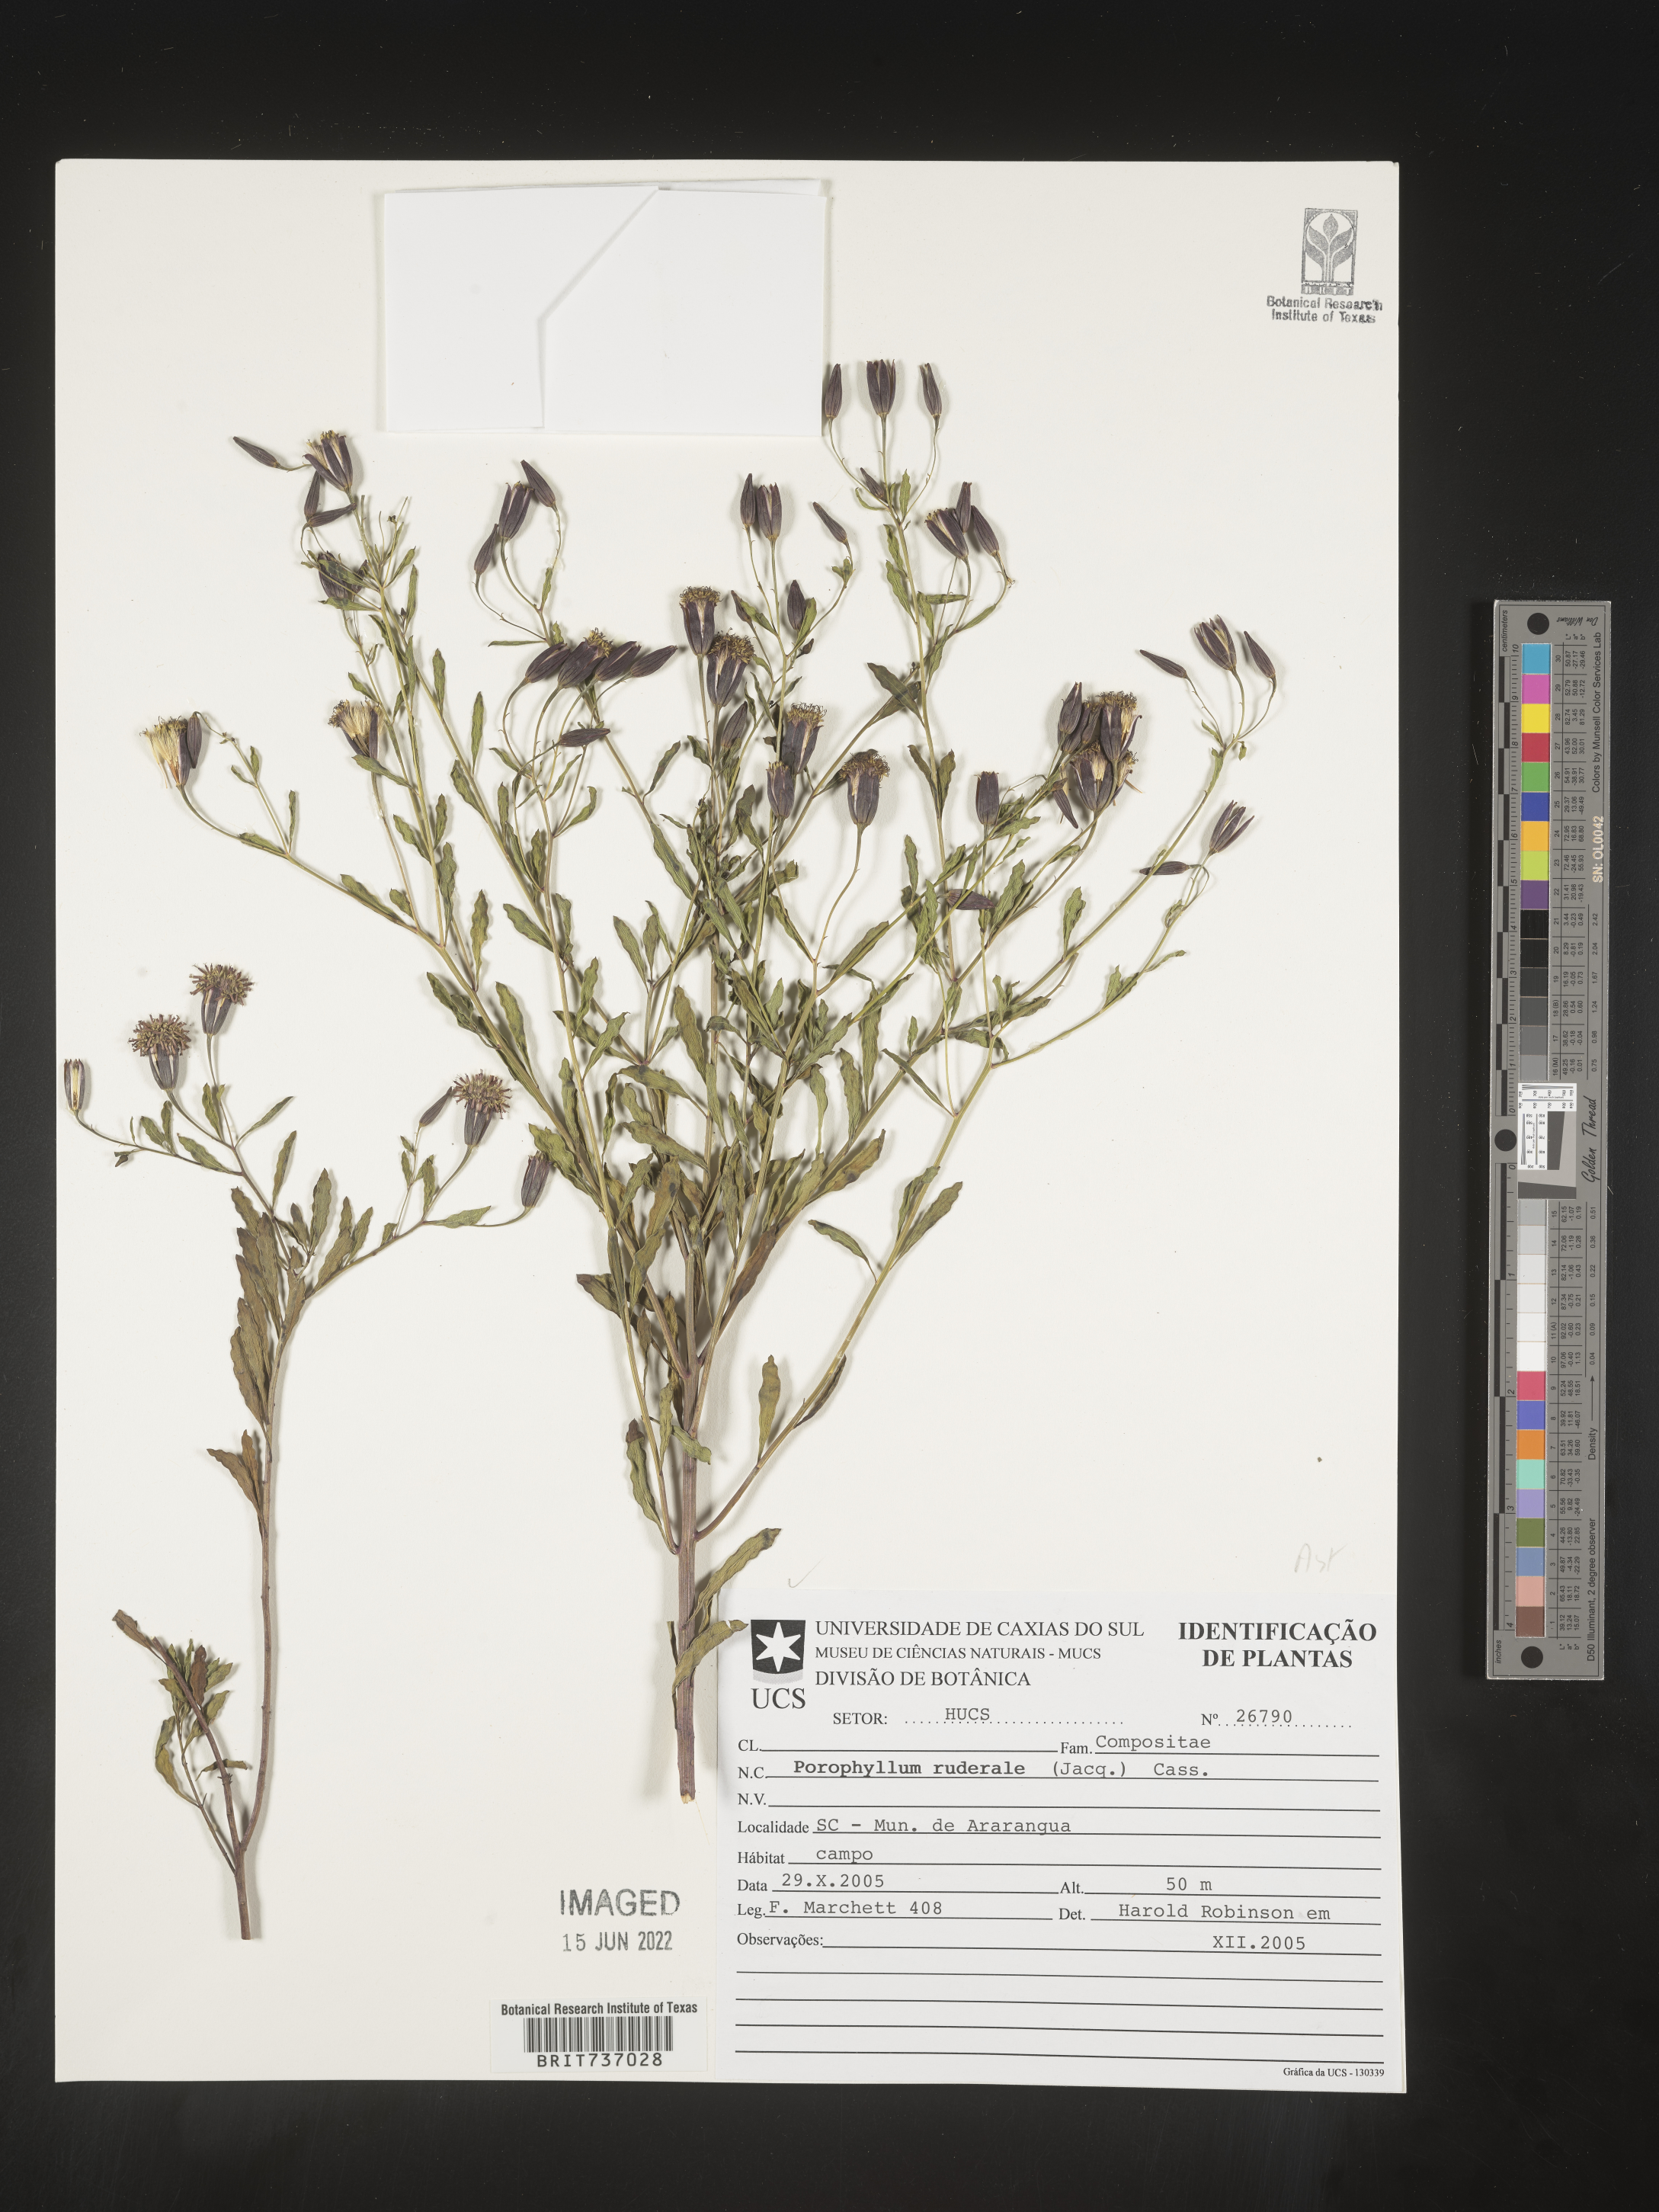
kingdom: Plantae
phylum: Tracheophyta
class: Magnoliopsida
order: Asterales
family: Asteraceae
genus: Porophyllum
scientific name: Porophyllum
